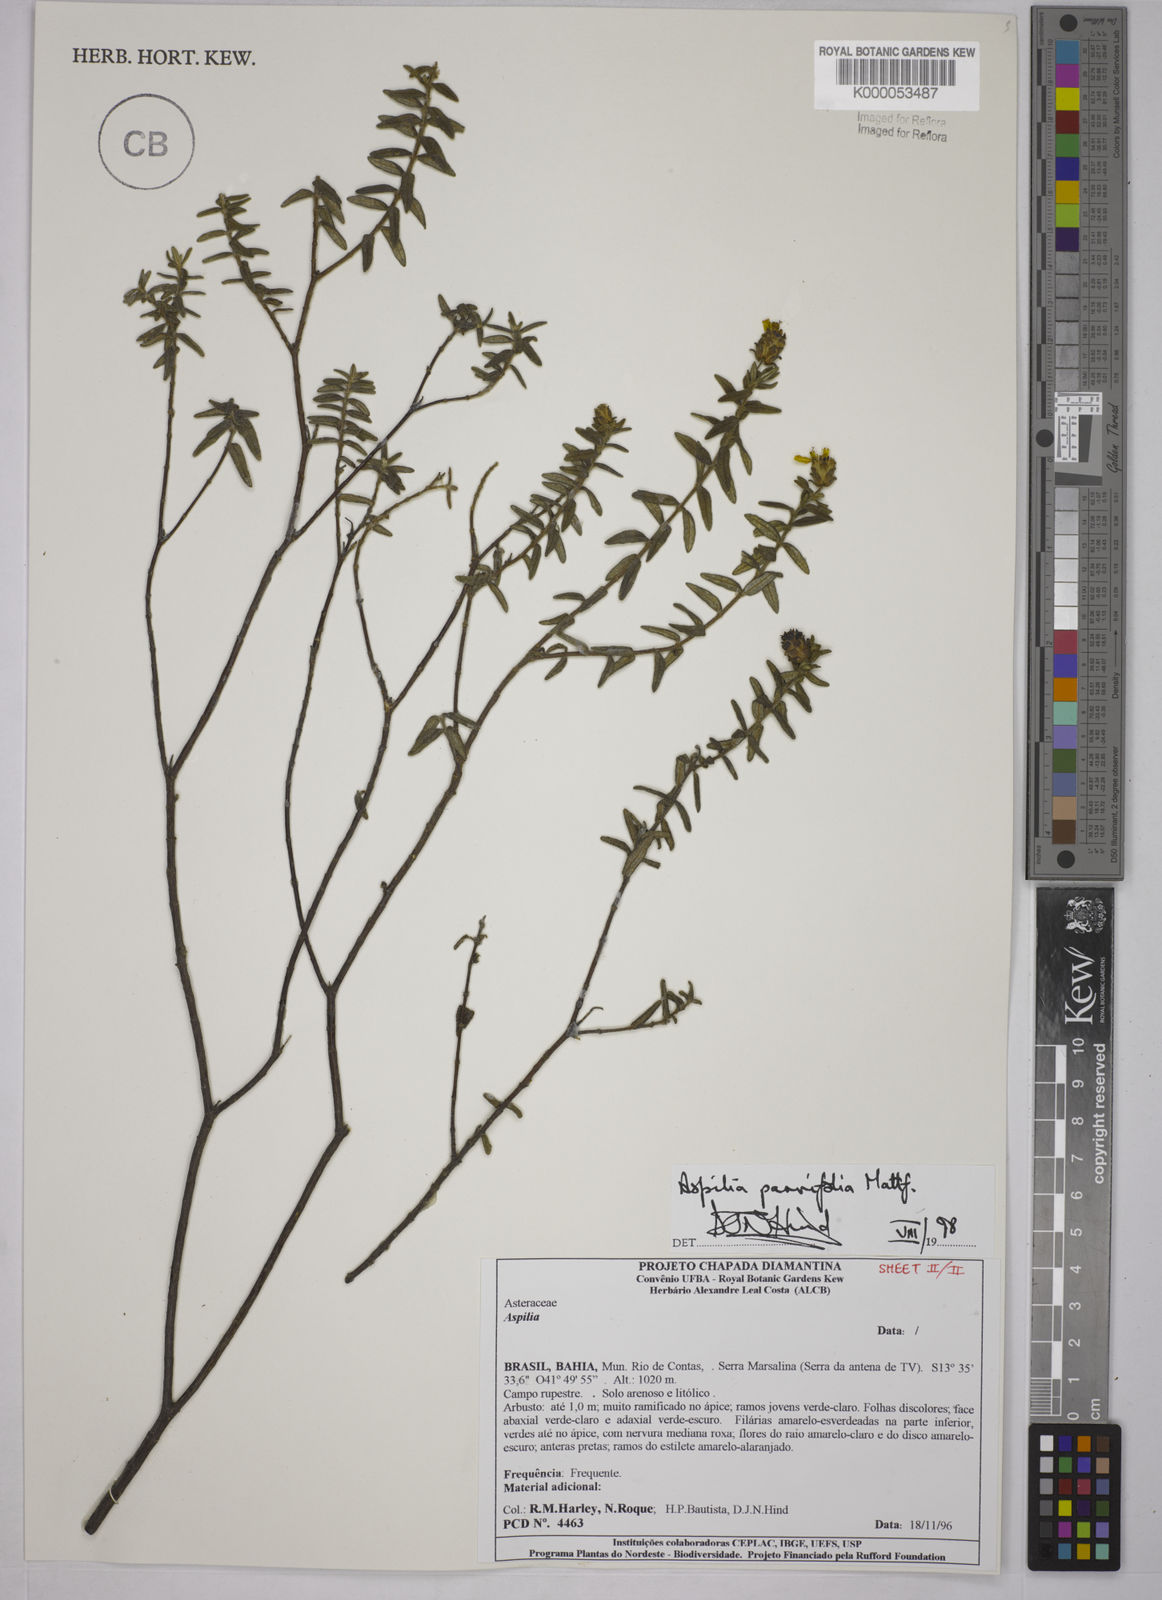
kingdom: Plantae
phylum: Tracheophyta
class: Magnoliopsida
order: Asterales
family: Asteraceae
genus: Aspilia
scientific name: Aspilia foliosa
